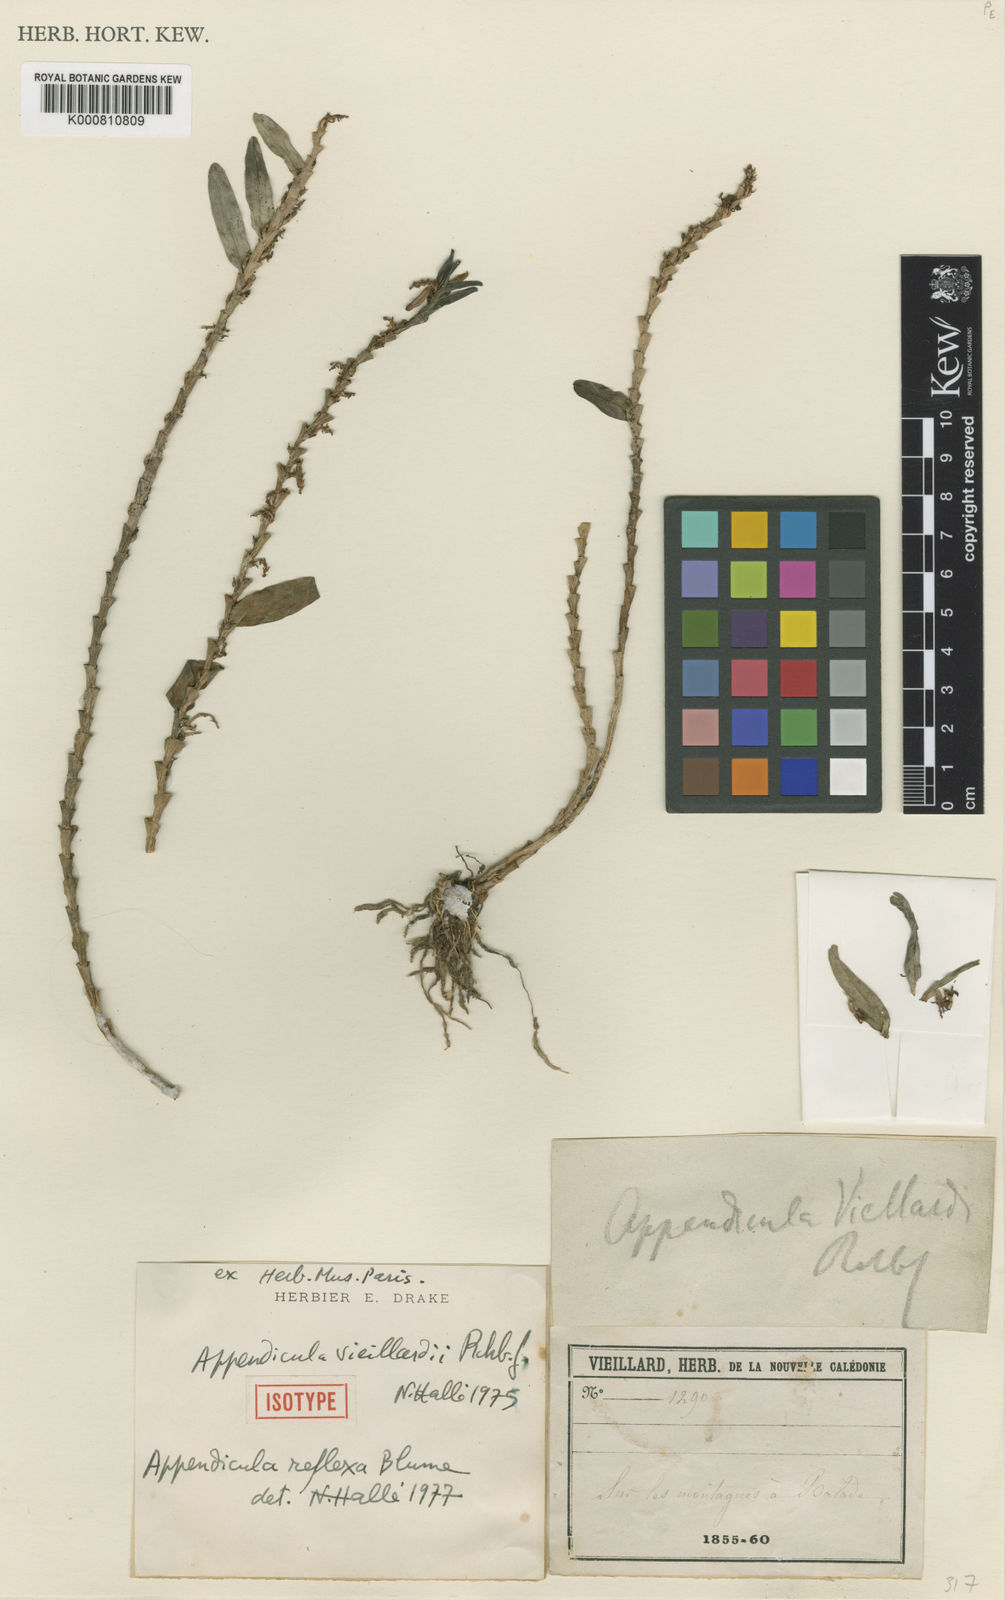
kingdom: Plantae
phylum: Tracheophyta
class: Liliopsida
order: Asparagales
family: Orchidaceae
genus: Appendicula
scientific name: Appendicula reflexa
